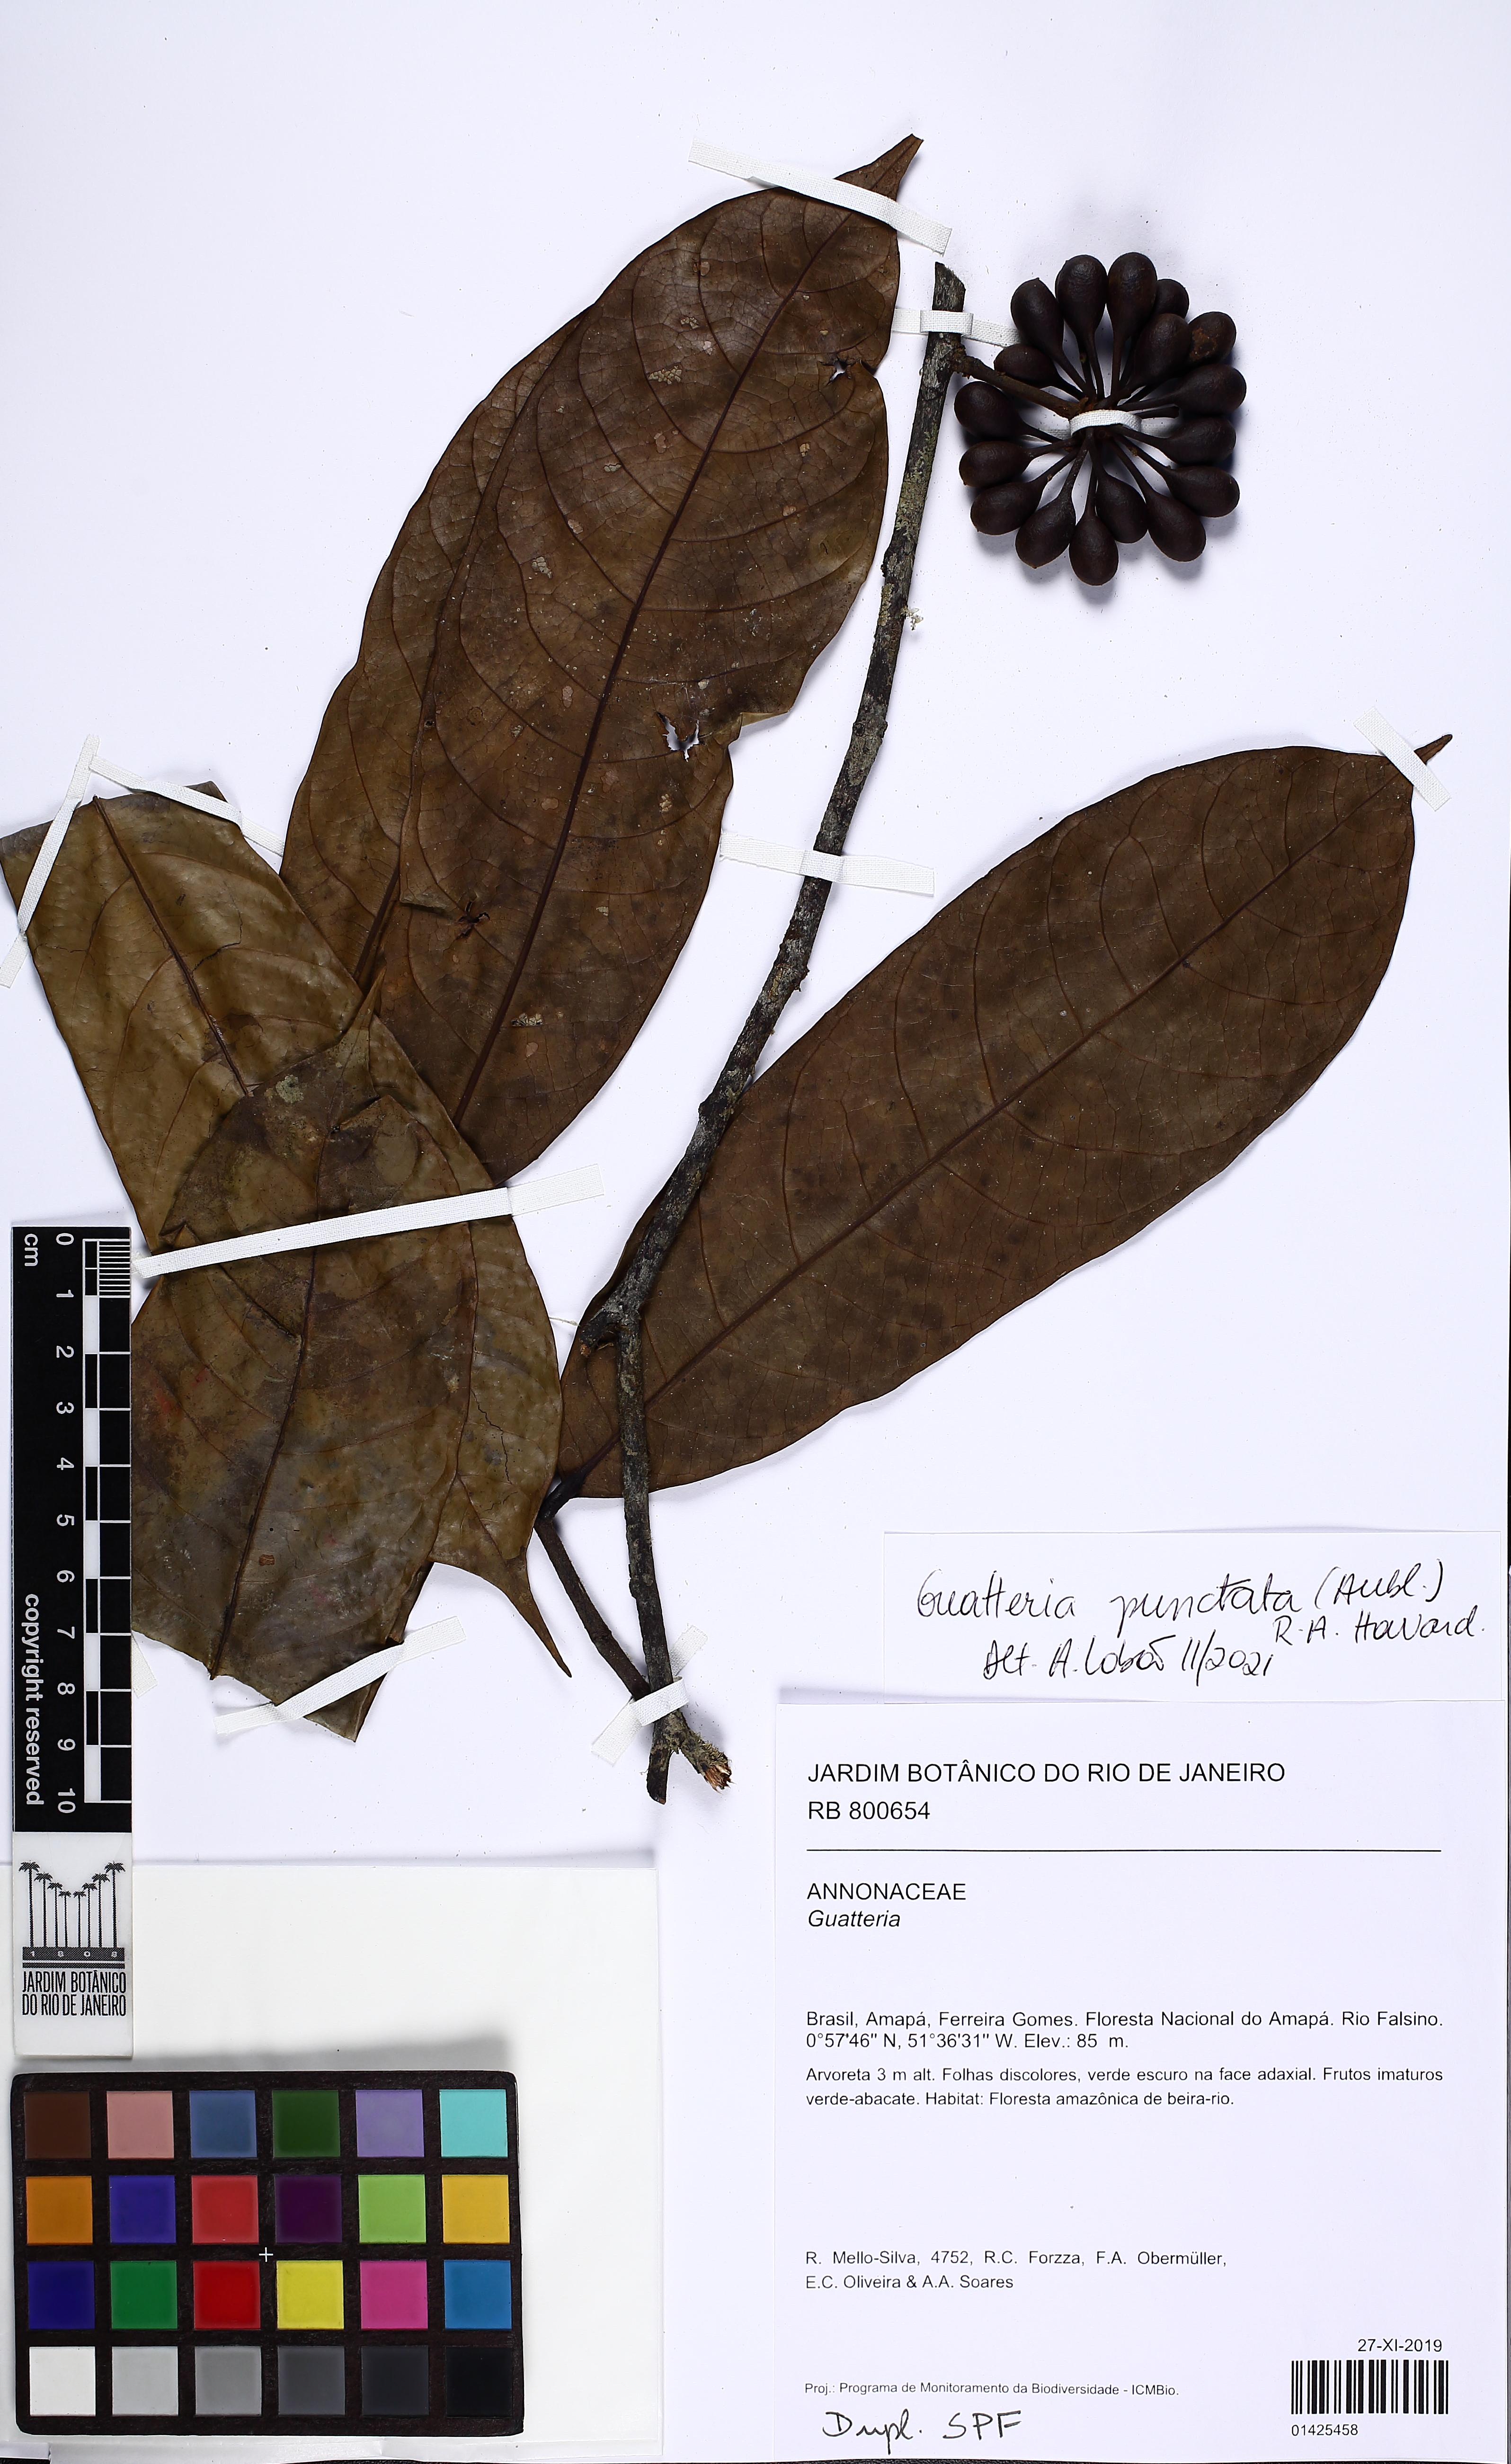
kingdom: Plantae
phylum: Tracheophyta
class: Magnoliopsida
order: Magnoliales
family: Annonaceae
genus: Guatteria
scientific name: Guatteria punctata
